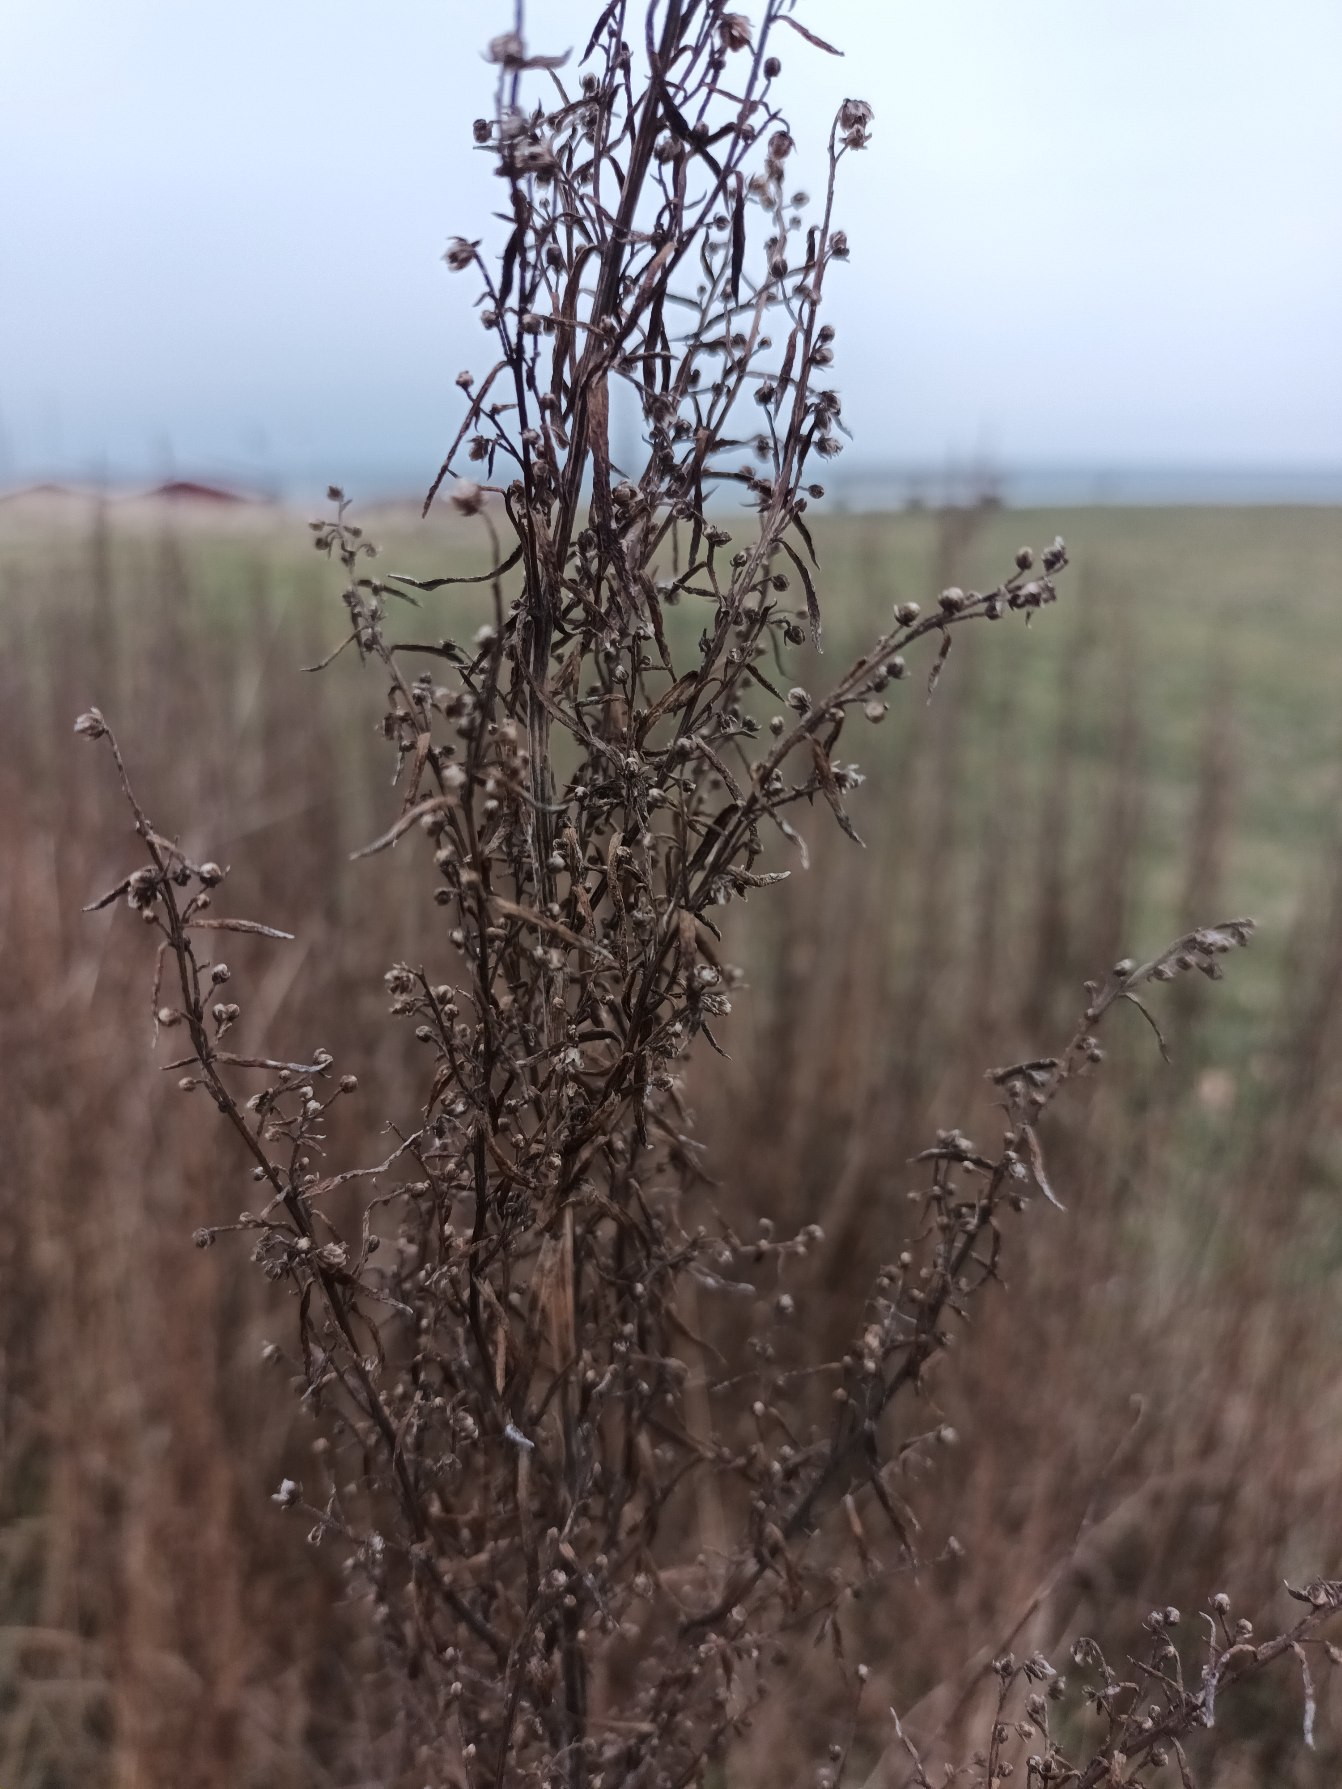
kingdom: Plantae
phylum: Tracheophyta
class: Magnoliopsida
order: Asterales
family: Asteraceae
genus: Artemisia
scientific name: Artemisia dracunculus
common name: Esdragon
